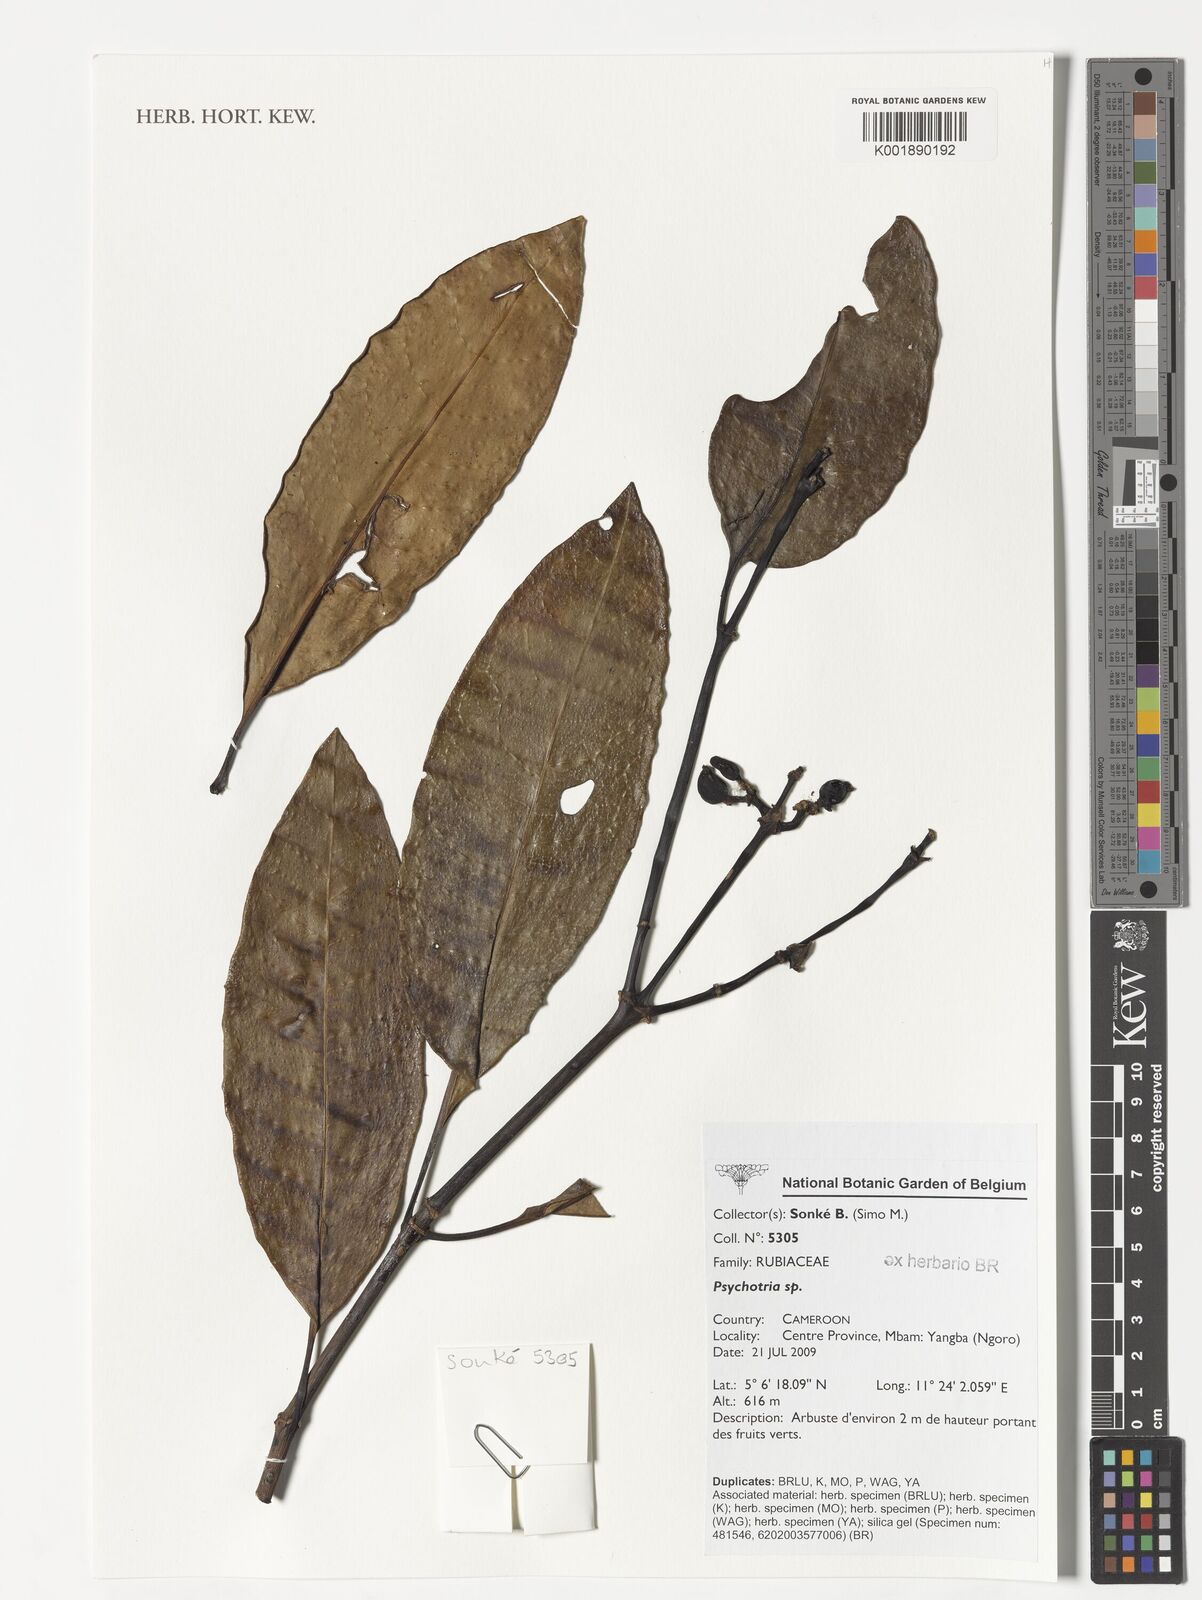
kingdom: Plantae
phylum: Tracheophyta
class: Magnoliopsida
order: Gentianales
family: Rubiaceae
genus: Psychotria
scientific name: Psychotria
